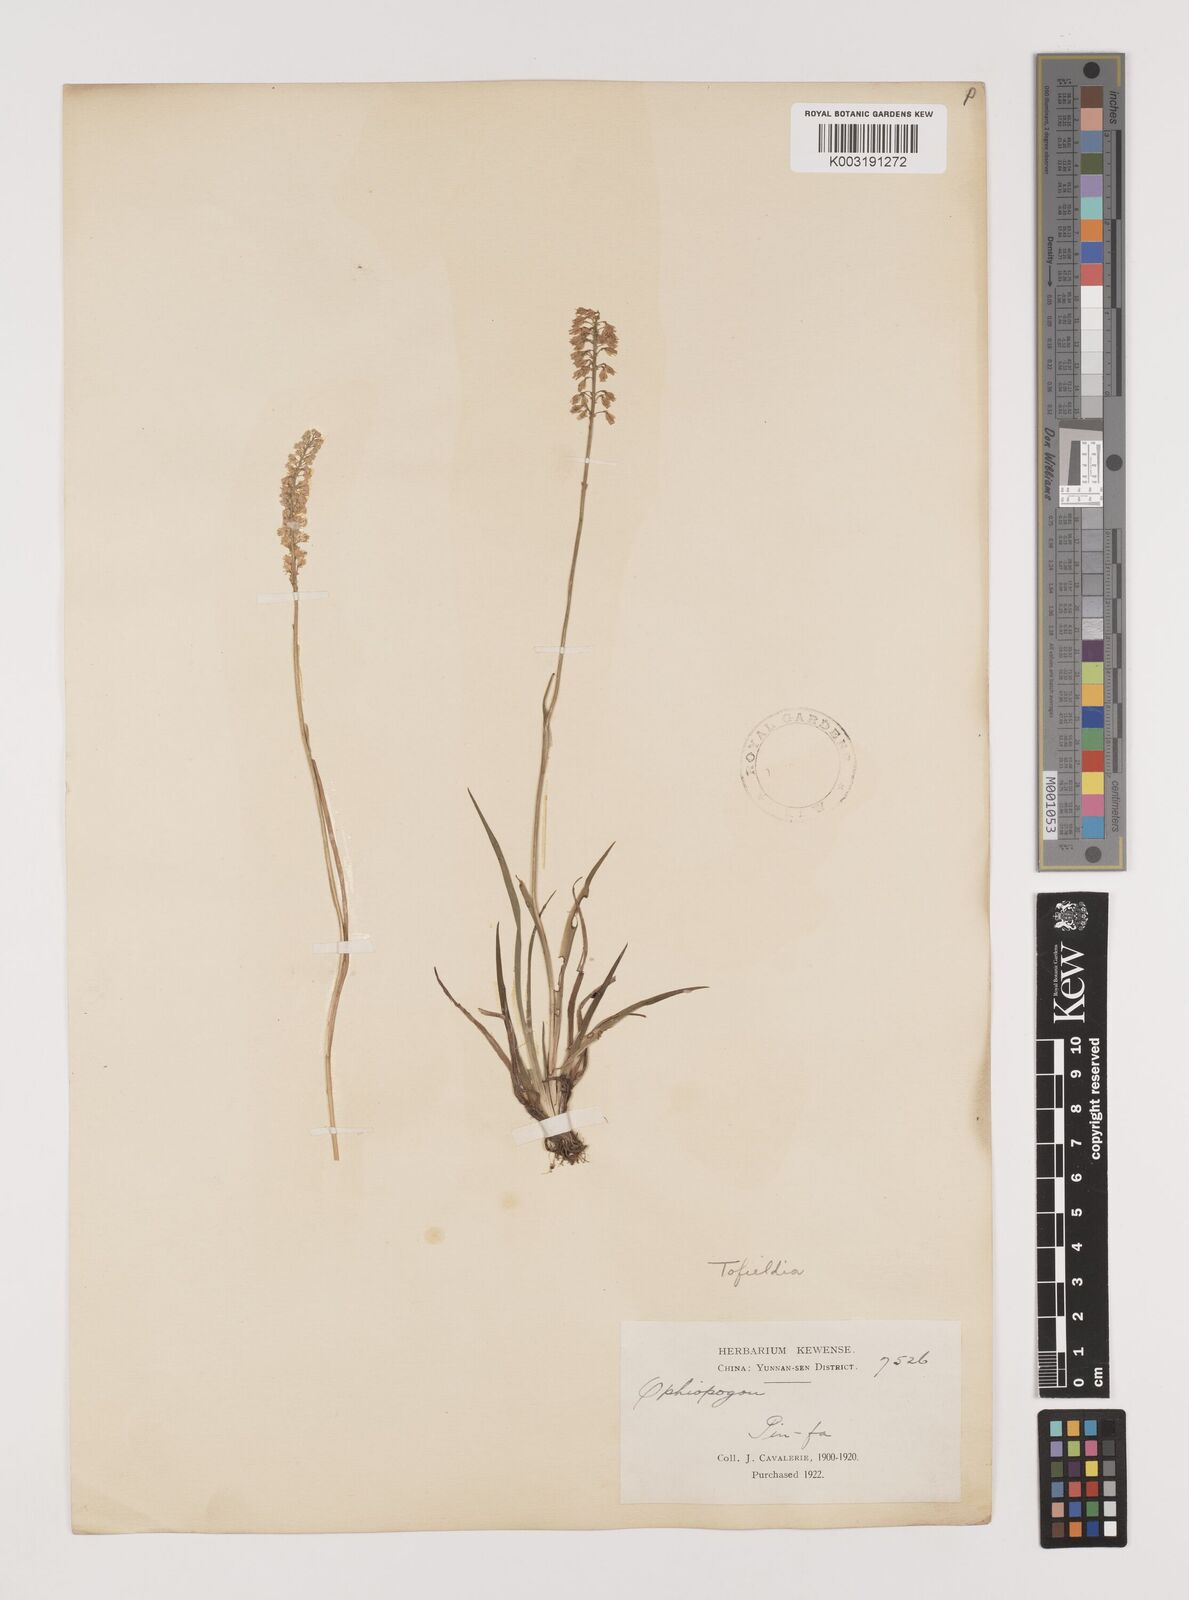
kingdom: Plantae
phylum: Tracheophyta
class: Liliopsida
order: Alismatales
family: Tofieldiaceae
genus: Tofieldia
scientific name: Tofieldia divergens
